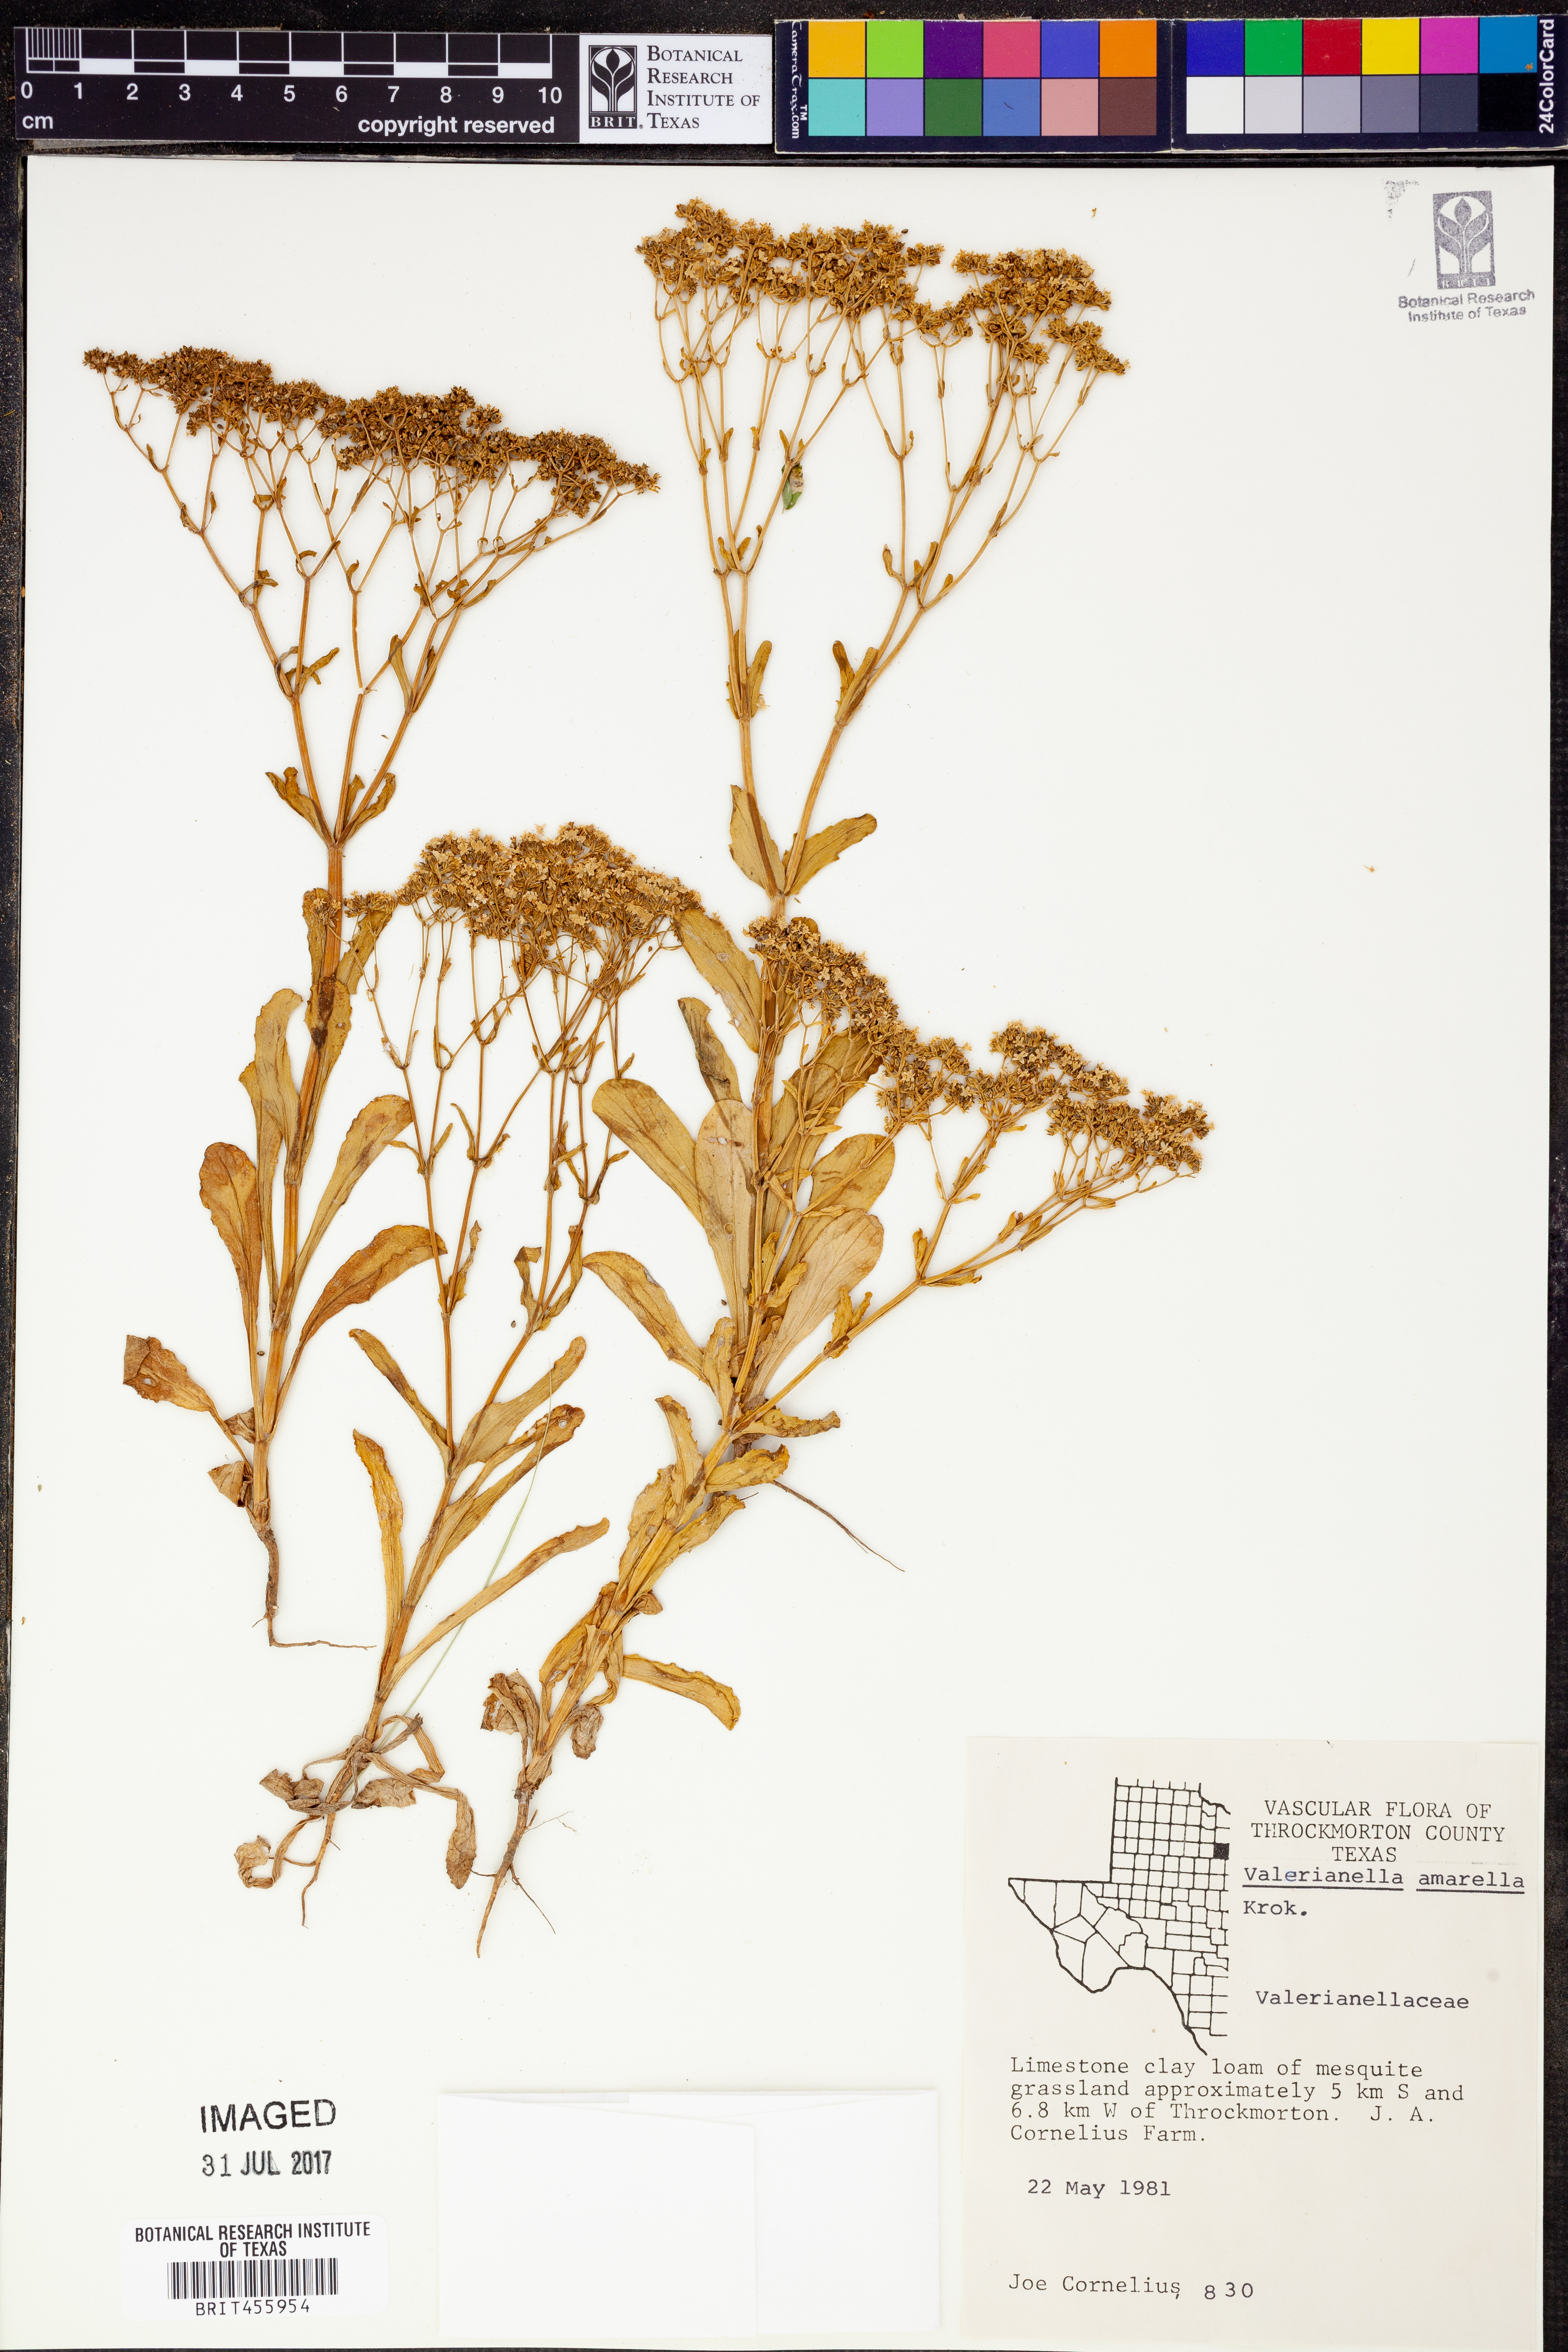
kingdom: Plantae
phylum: Tracheophyta
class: Magnoliopsida
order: Dipsacales
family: Caprifoliaceae
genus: Valerianella
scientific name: Valerianella amarella
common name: Hariy cornsalad
